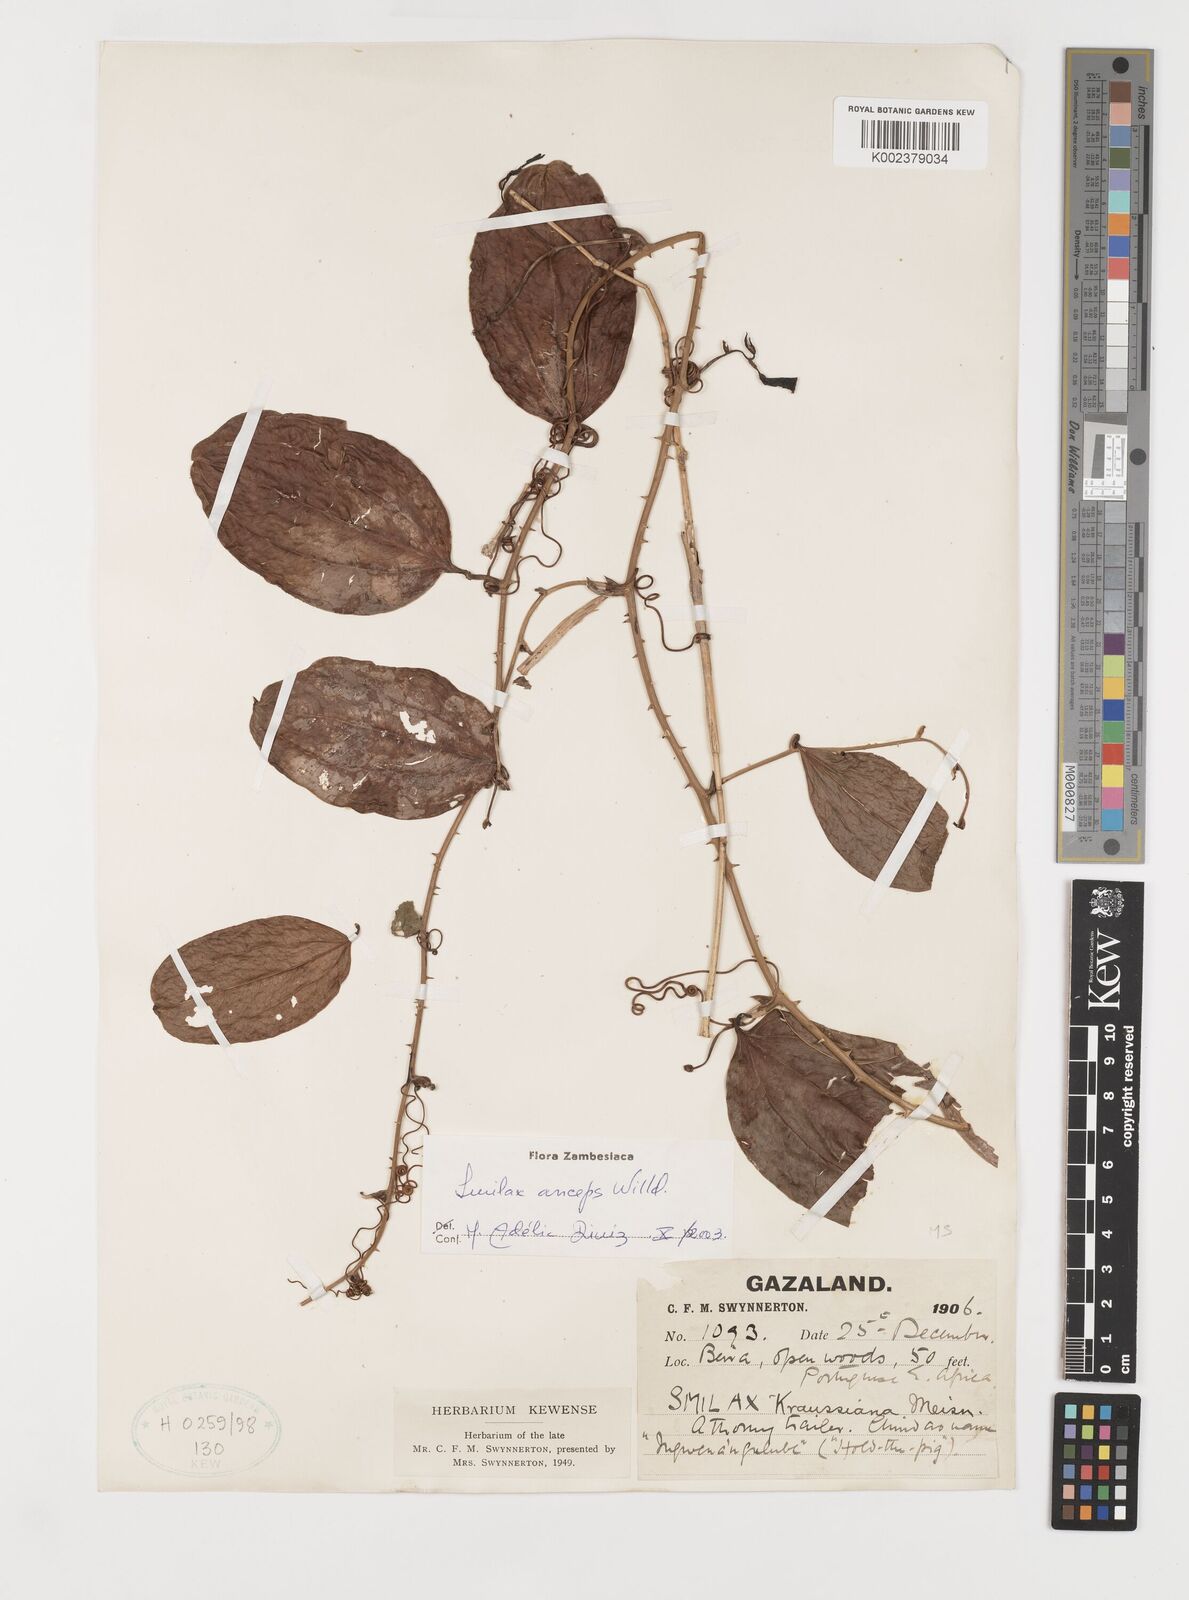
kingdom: Plantae
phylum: Tracheophyta
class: Liliopsida
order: Liliales
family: Smilacaceae
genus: Smilax
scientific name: Smilax anceps
